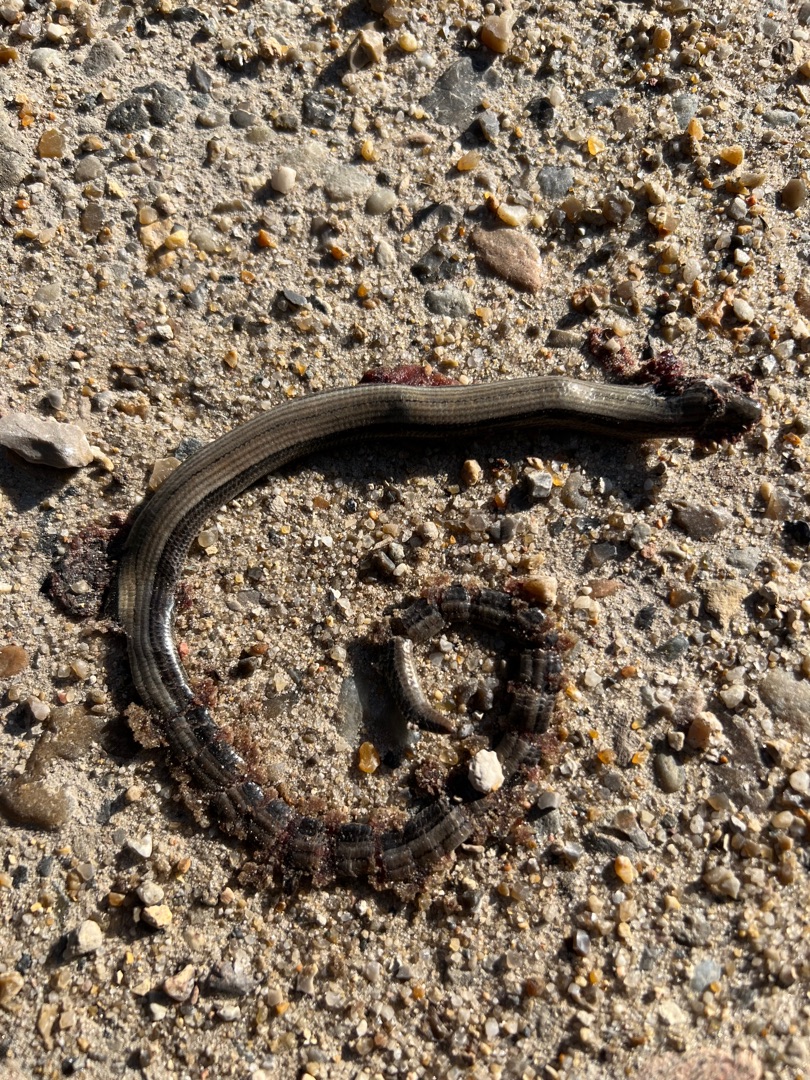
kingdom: Animalia
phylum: Chordata
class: Squamata
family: Anguidae
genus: Anguis
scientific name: Anguis fragilis
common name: Stålorm
